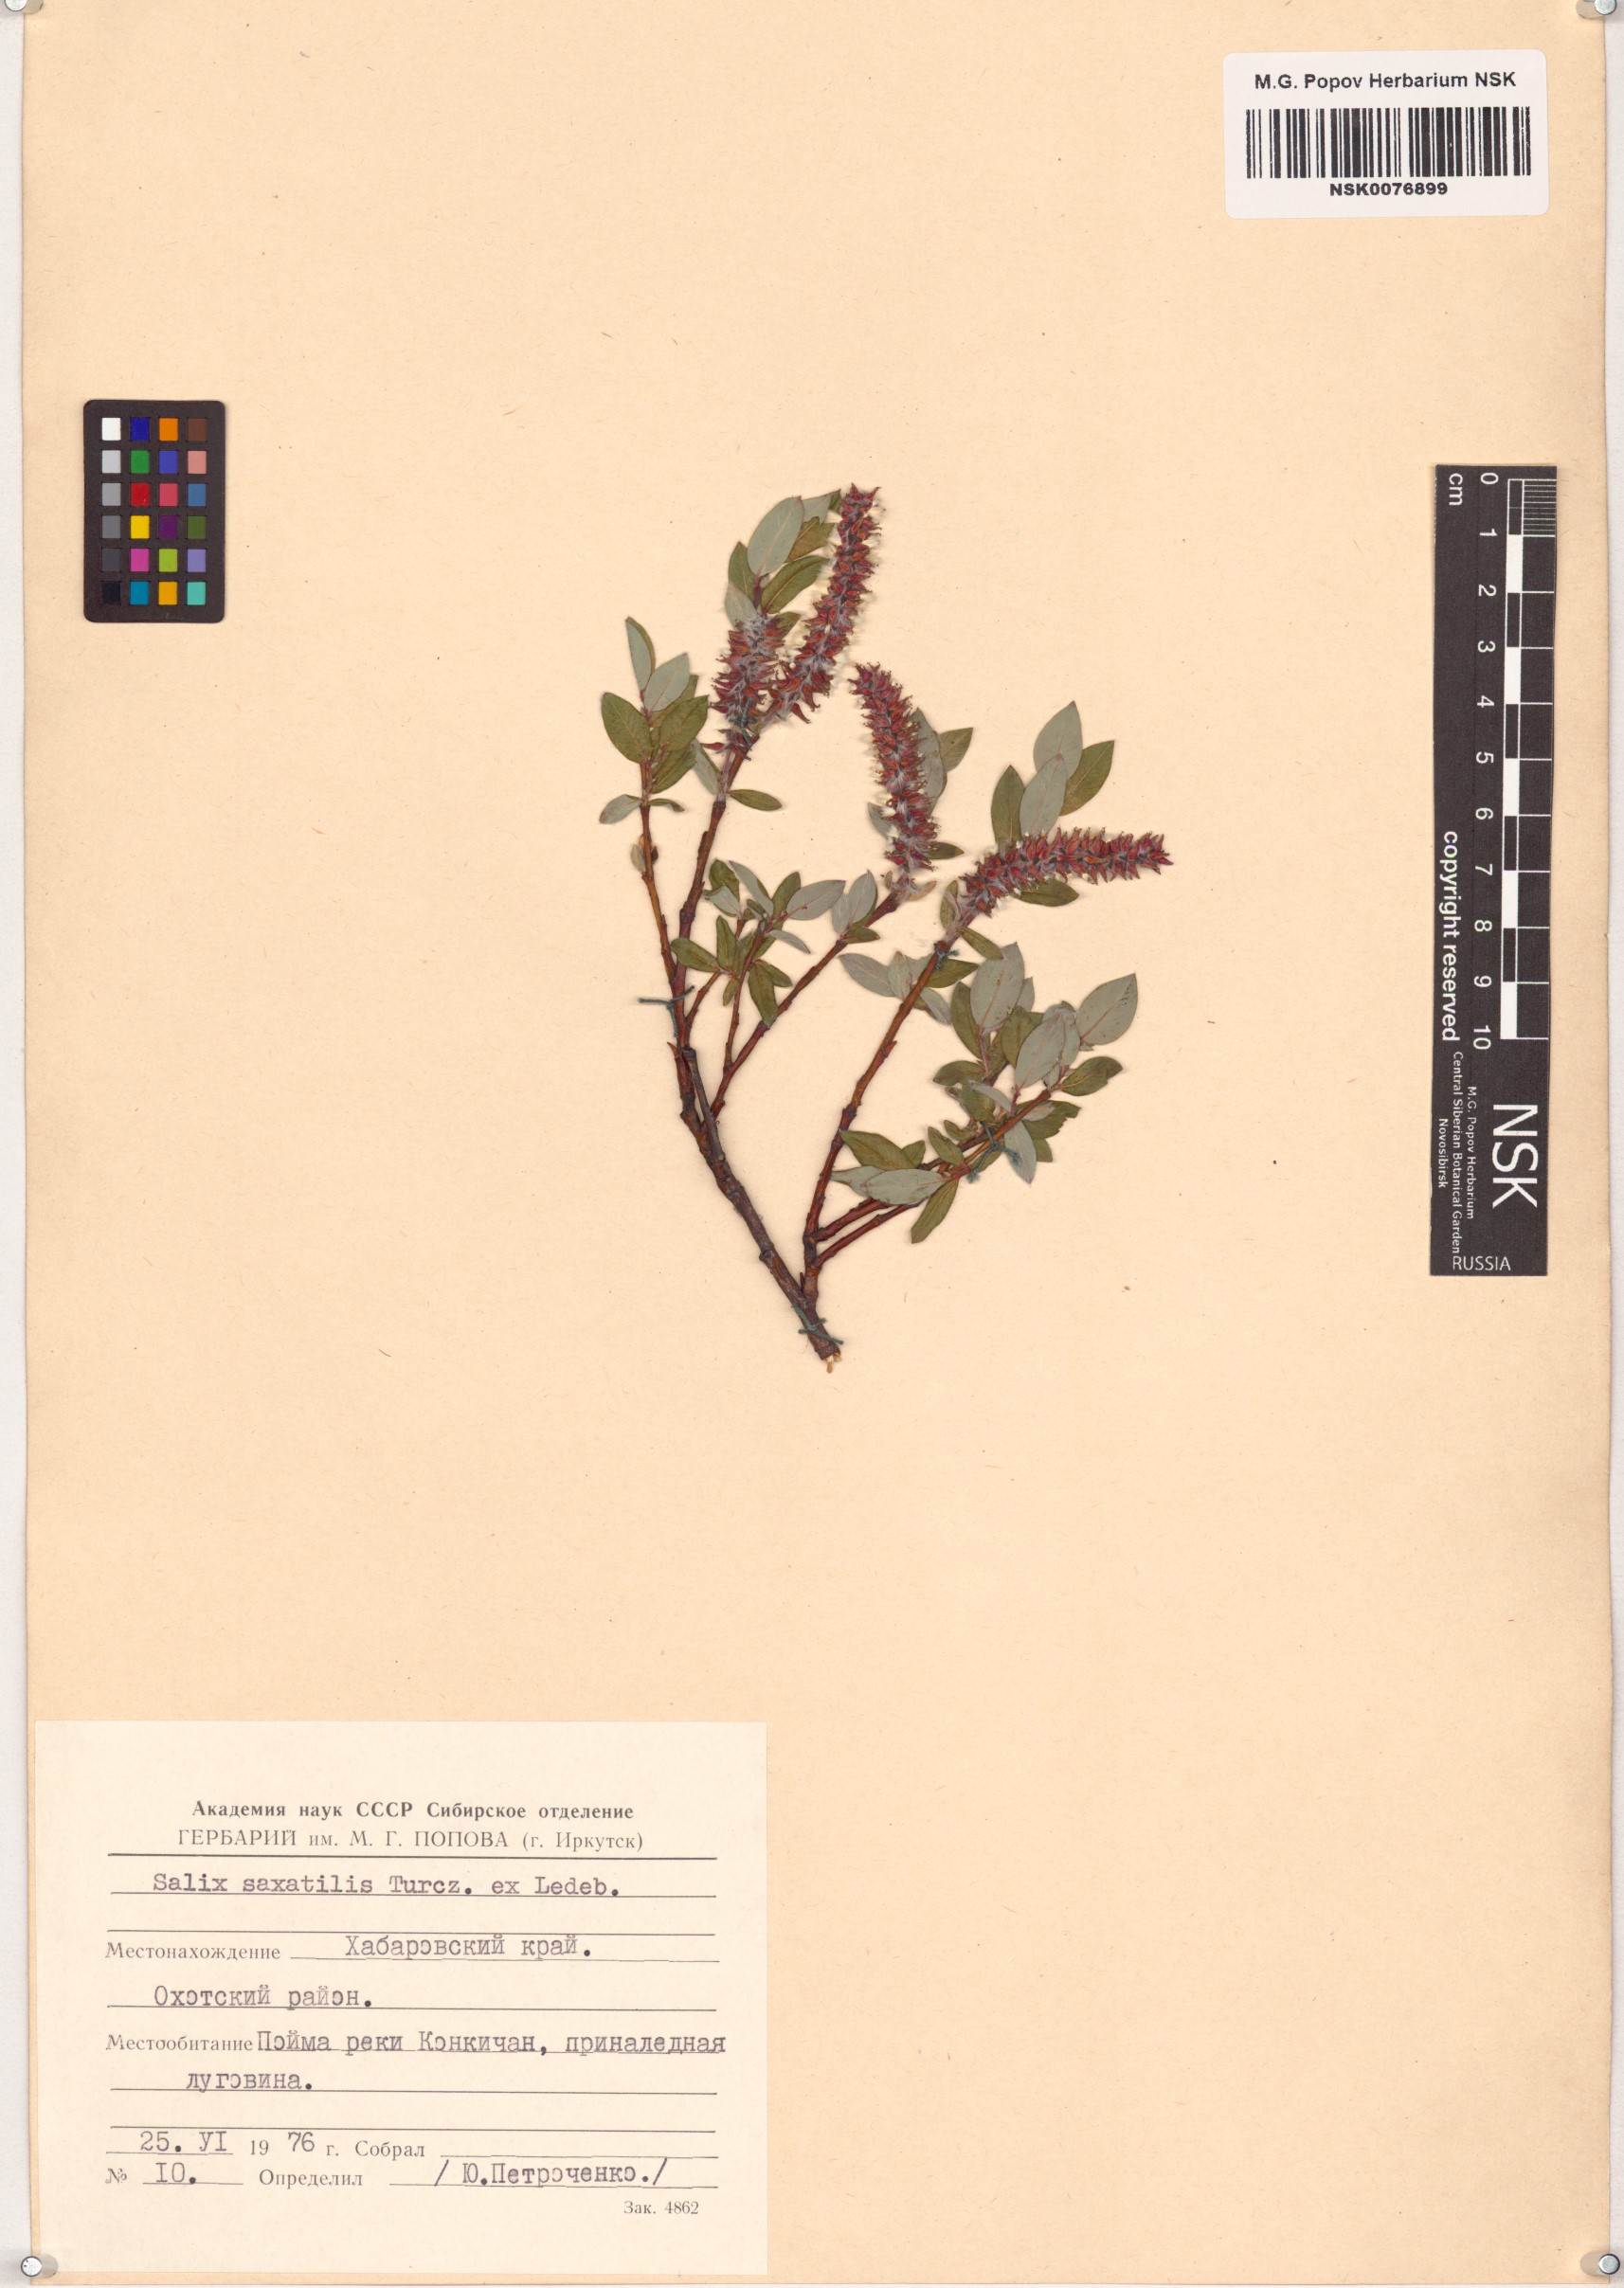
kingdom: Plantae
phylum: Tracheophyta
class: Magnoliopsida
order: Malpighiales
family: Salicaceae
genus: Salix
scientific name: Salix saxatilis
